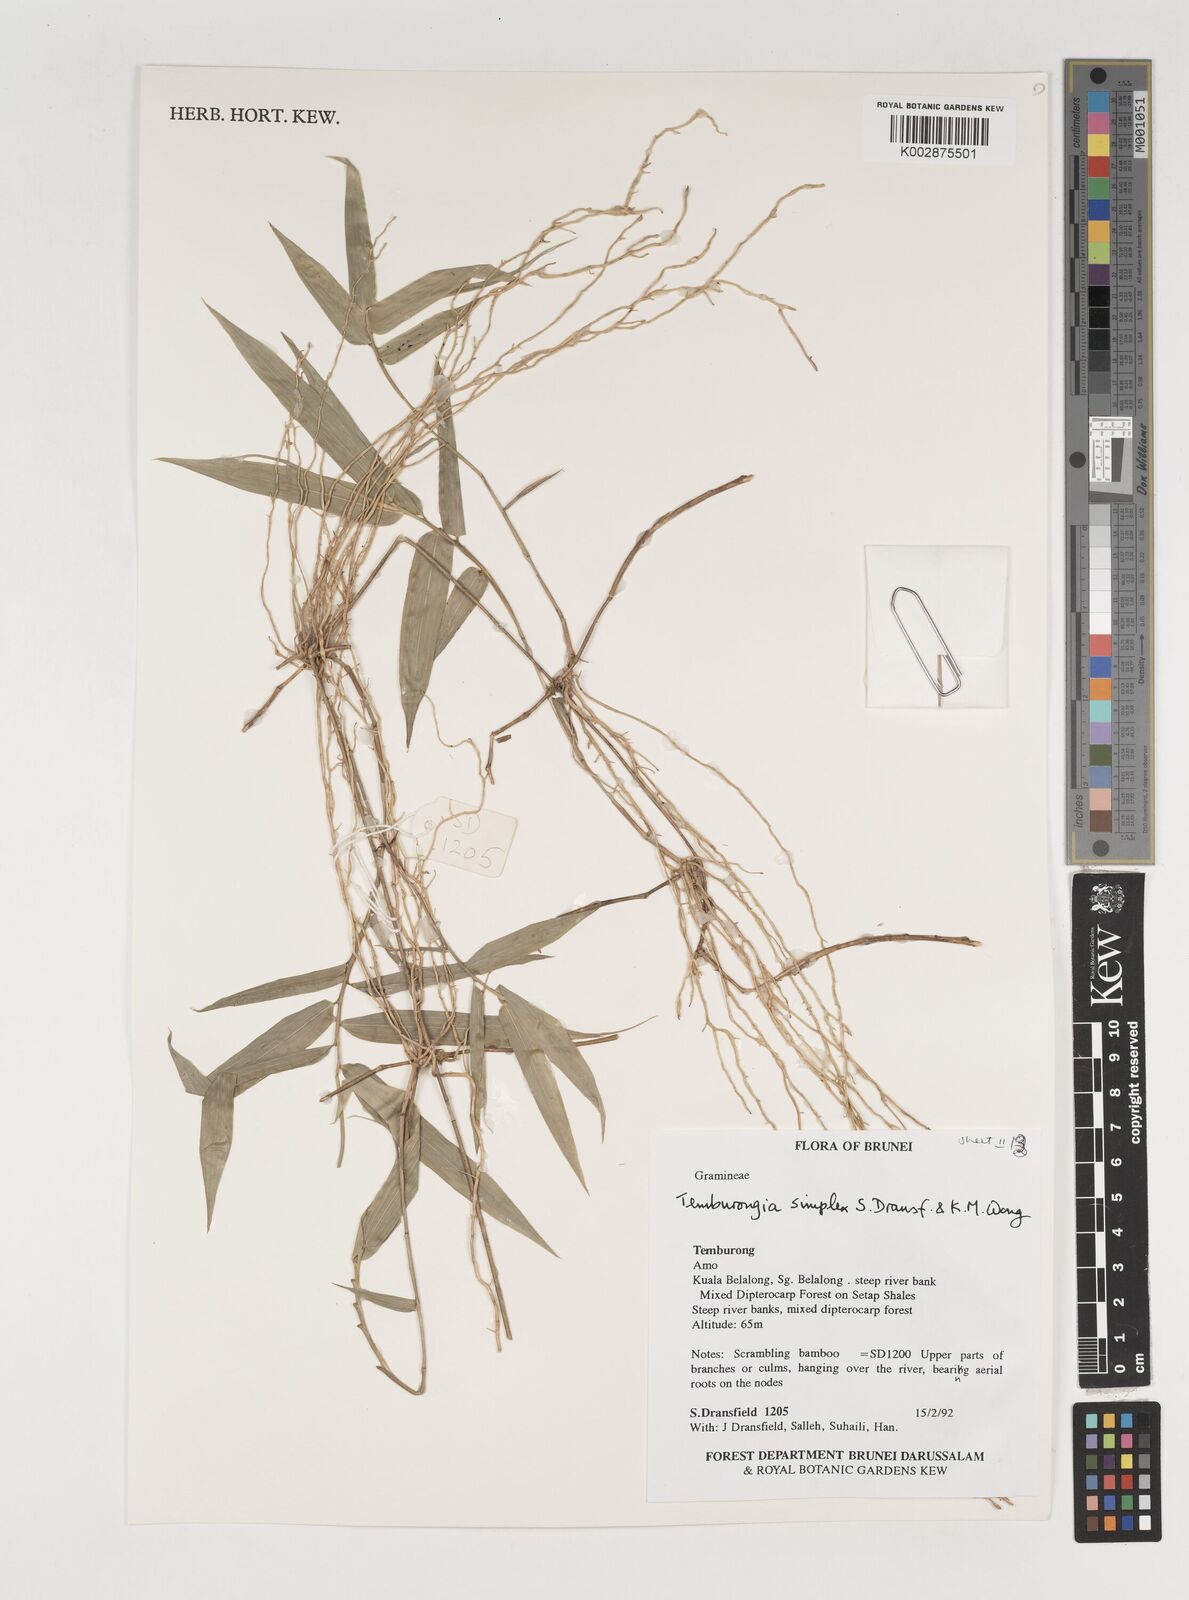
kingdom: Plantae
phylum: Tracheophyta
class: Liliopsida
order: Poales
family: Poaceae
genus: Temburongia
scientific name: Temburongia simplex
